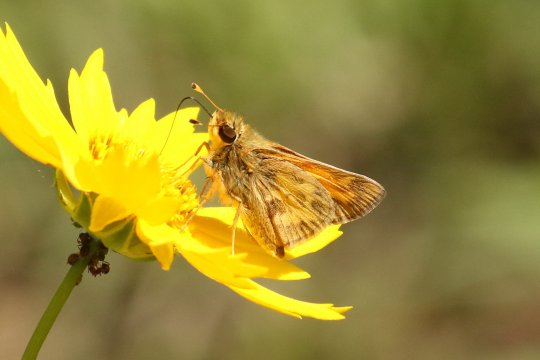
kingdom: Animalia
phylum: Arthropoda
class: Insecta
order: Lepidoptera
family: Hesperiidae
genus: Atalopedes
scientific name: Atalopedes campestris
